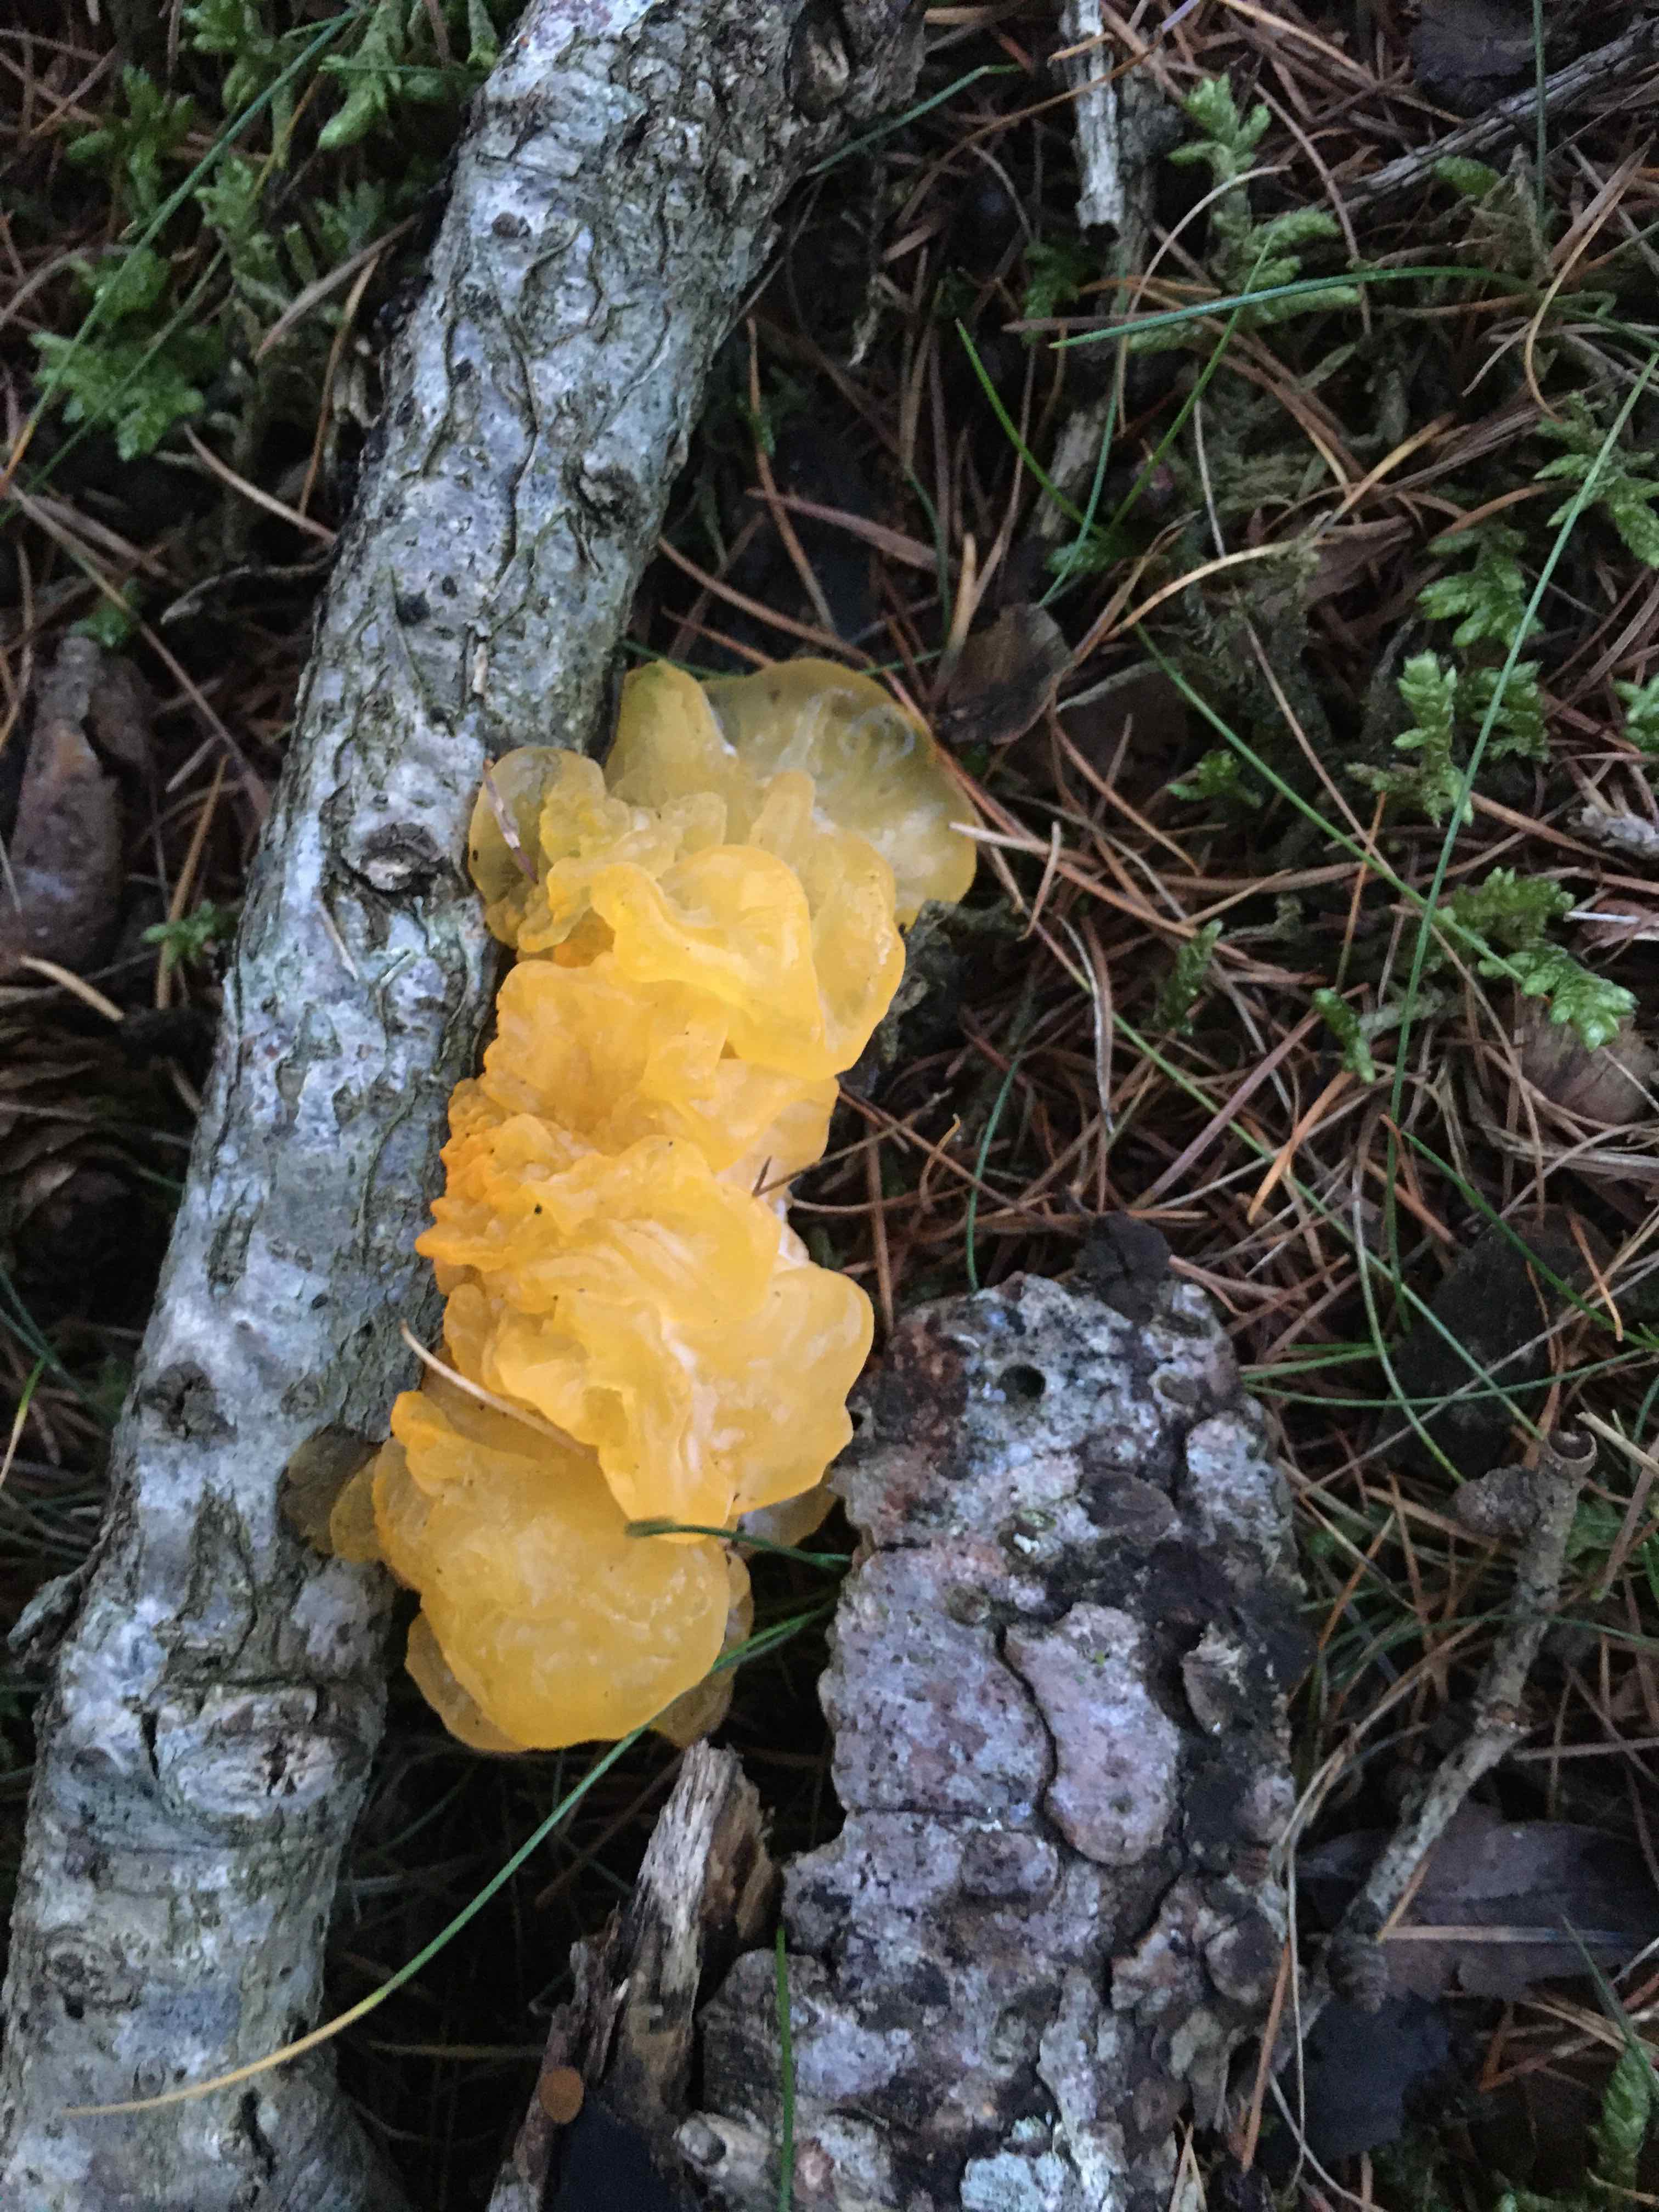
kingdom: Fungi
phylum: Basidiomycota
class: Tremellomycetes
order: Tremellales
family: Tremellaceae
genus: Tremella
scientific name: Tremella mesenterica
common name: gul bævresvamp
